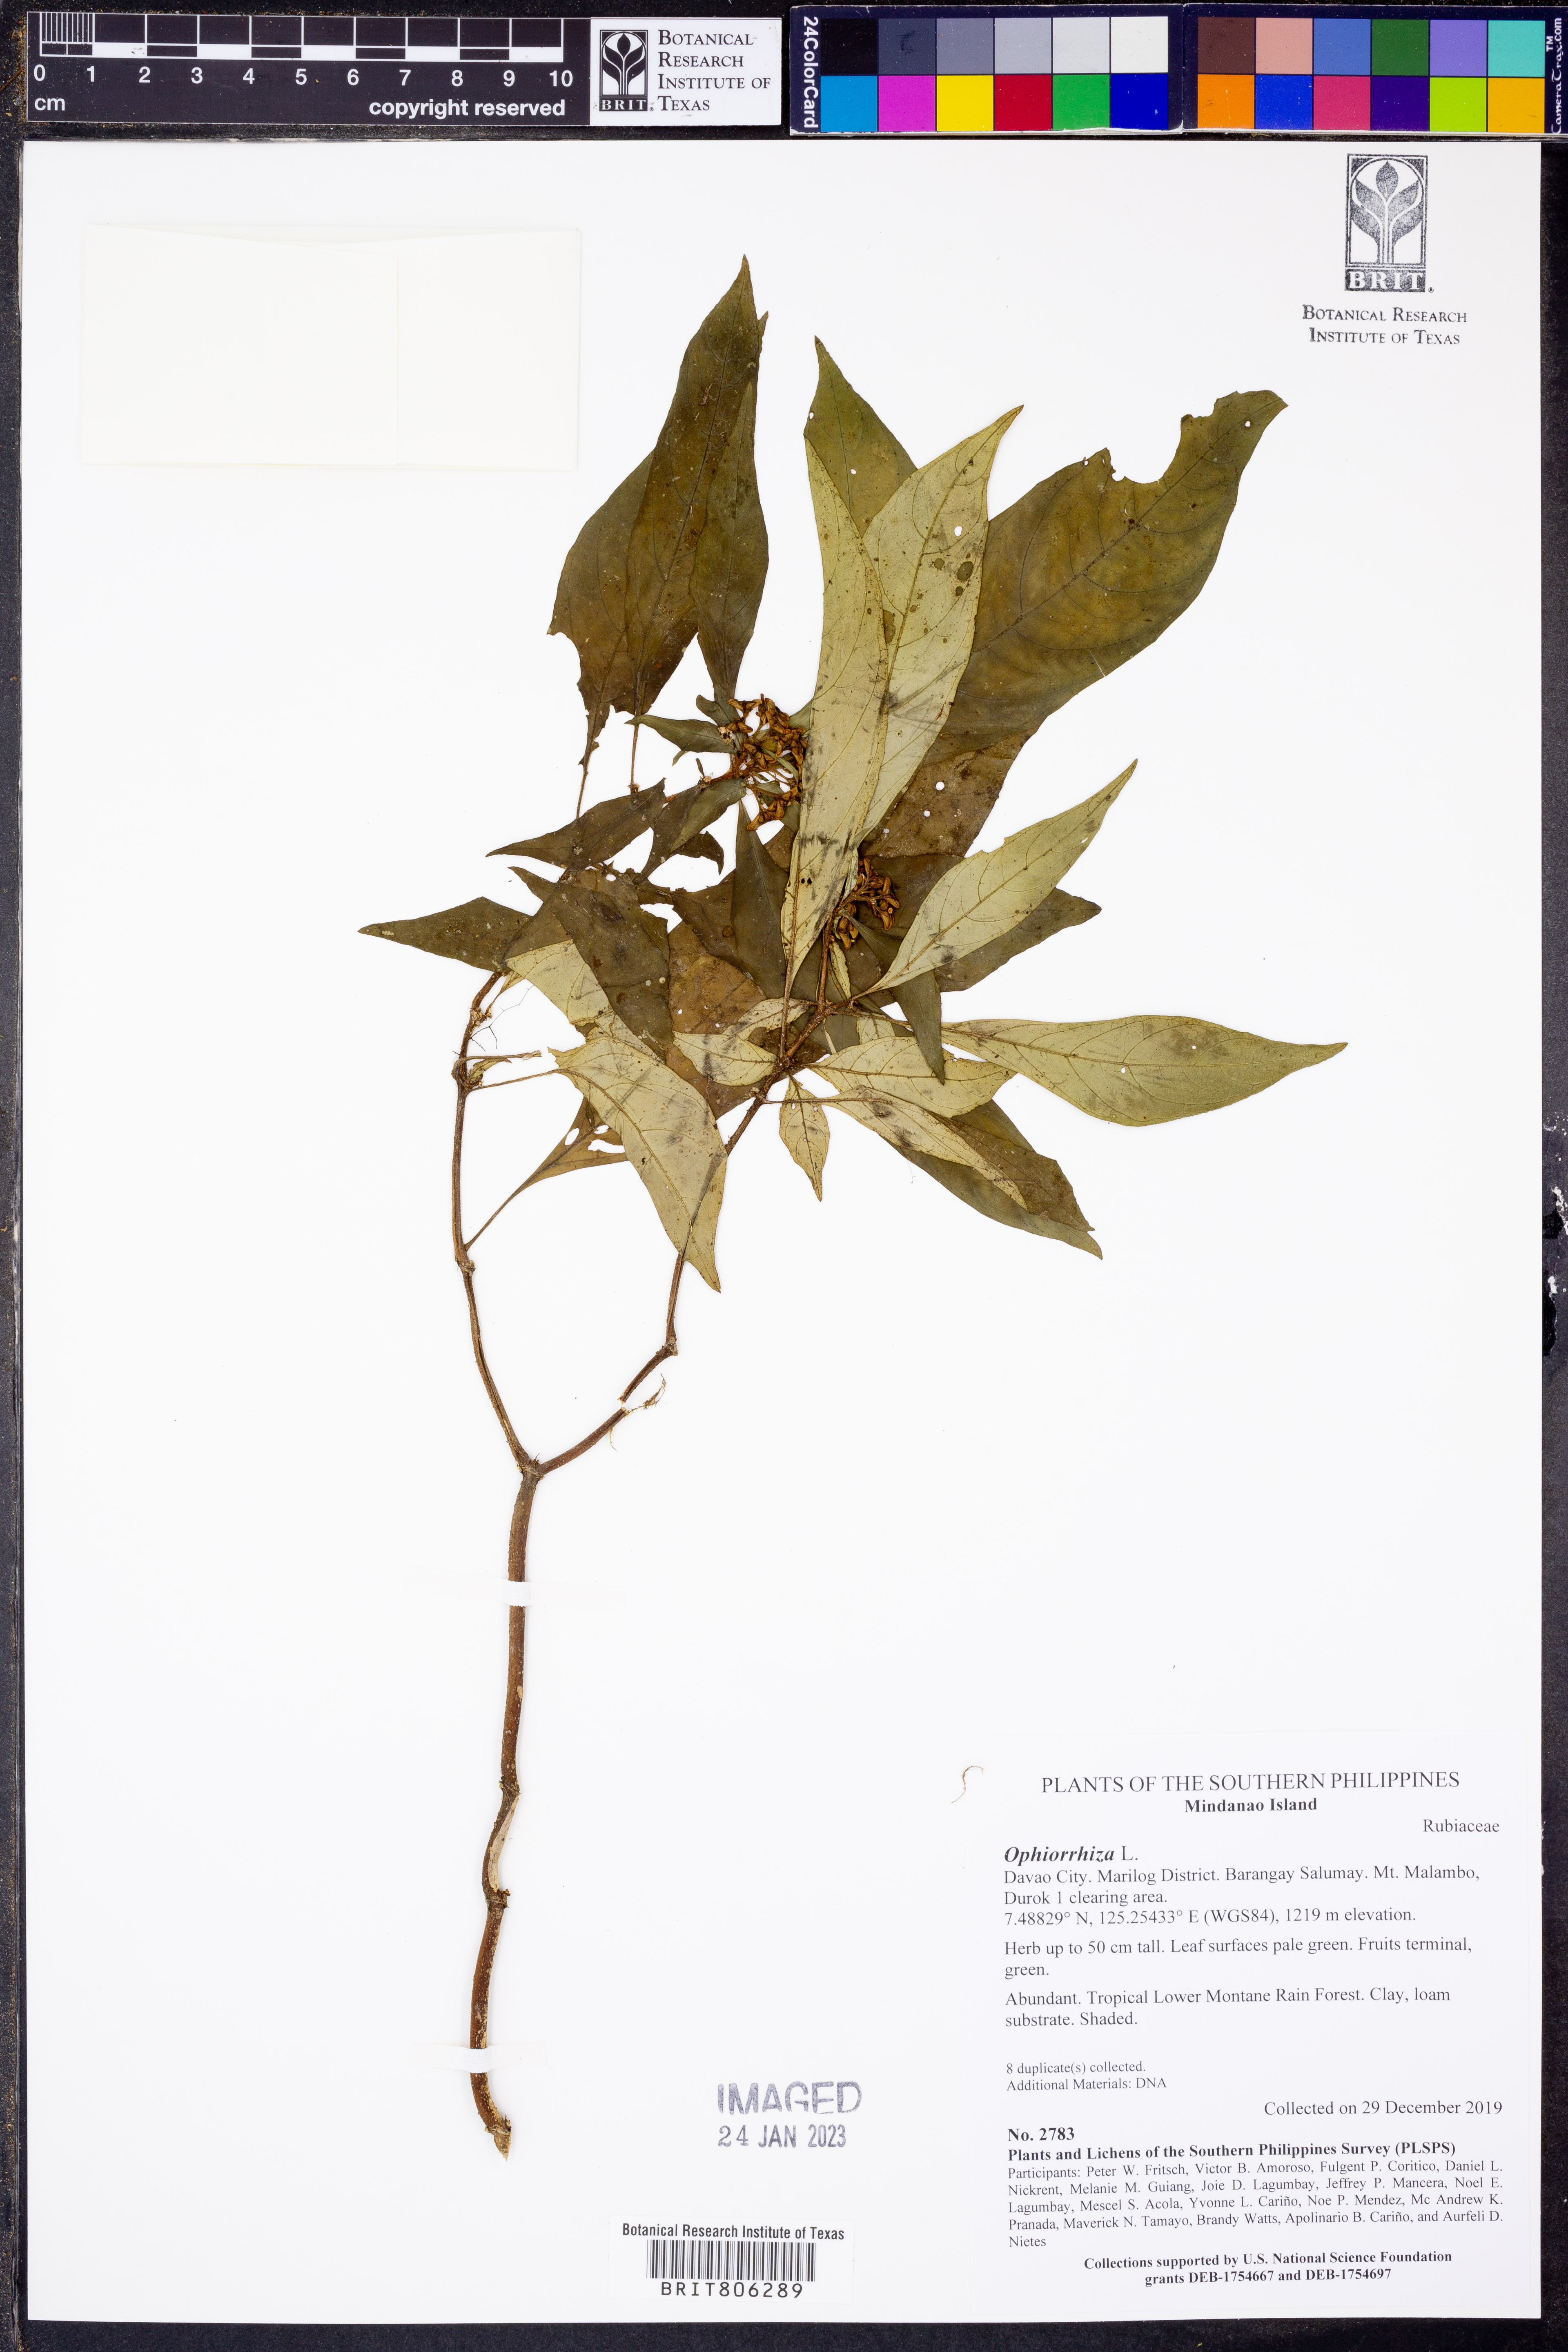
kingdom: Plantae
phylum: Tracheophyta
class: Magnoliopsida
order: Gentianales
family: Rubiaceae
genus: Ophiorrhiza
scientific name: Ophiorrhiza
